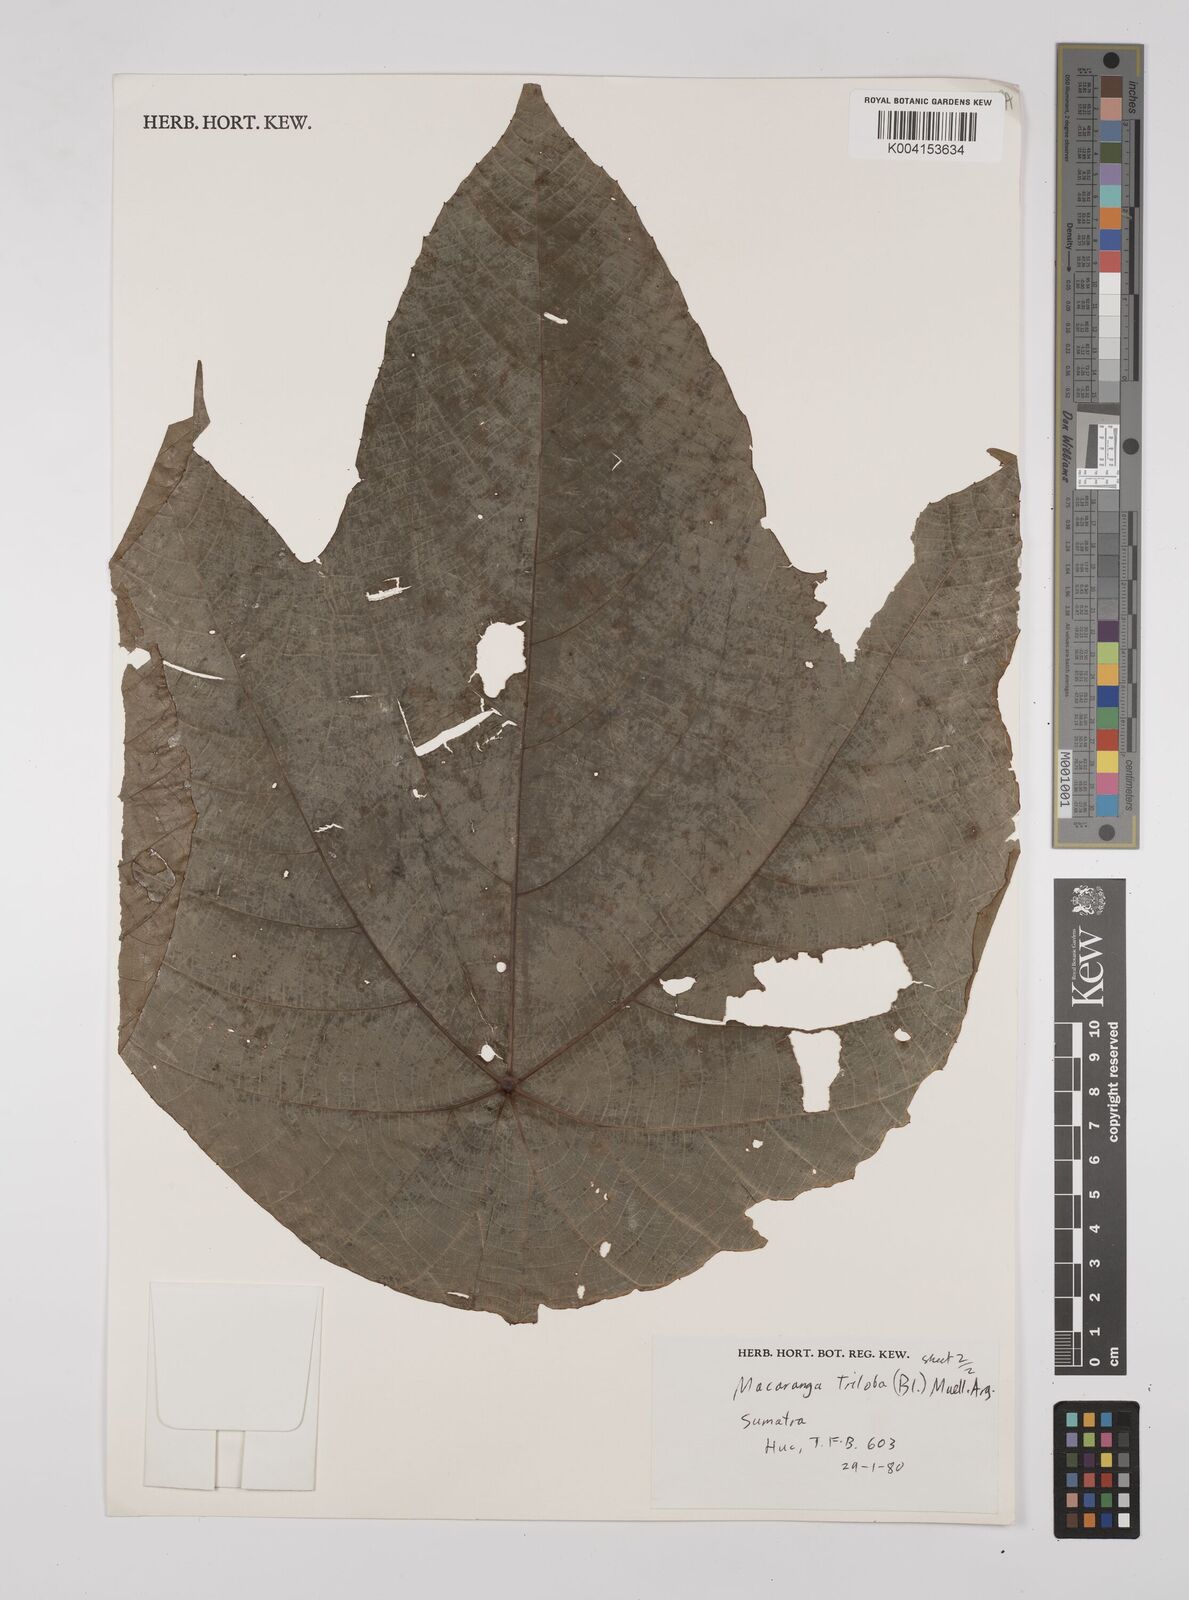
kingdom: Plantae
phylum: Tracheophyta
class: Magnoliopsida
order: Malpighiales
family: Euphorbiaceae
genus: Macaranga
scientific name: Macaranga triloba
